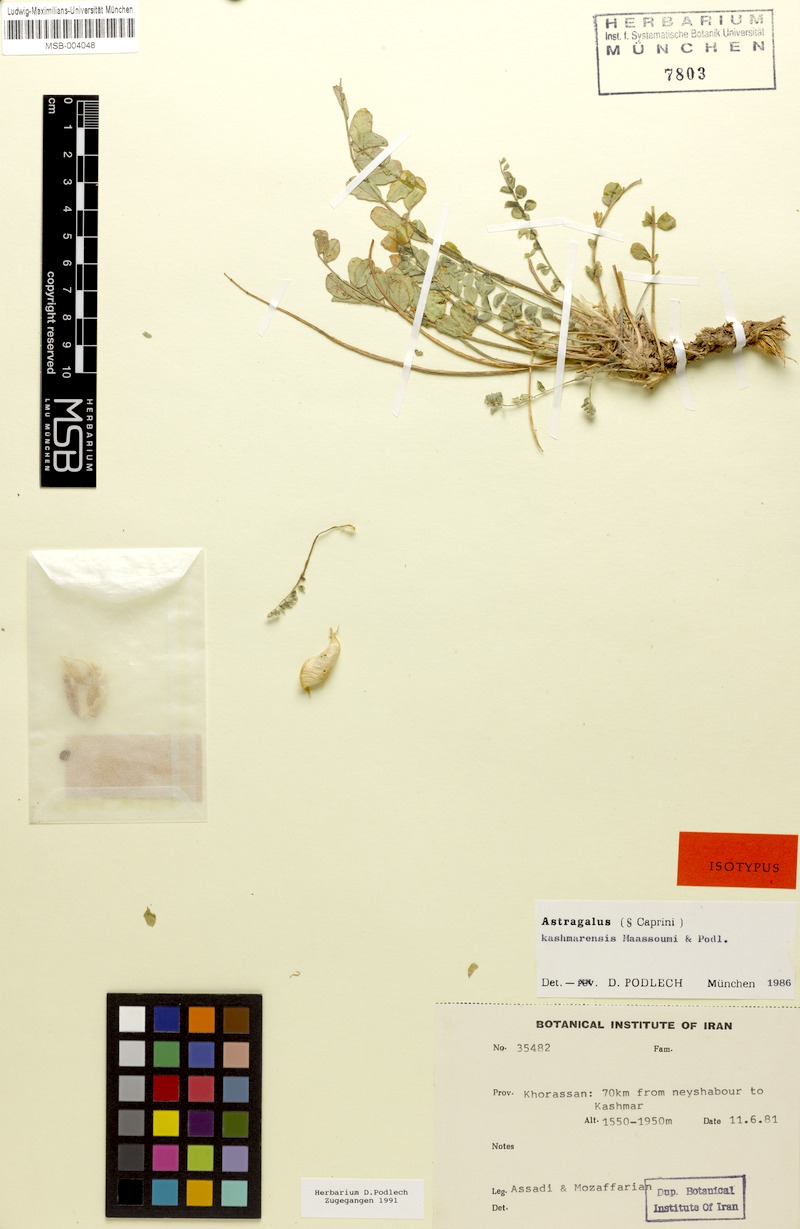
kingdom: Plantae
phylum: Tracheophyta
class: Magnoliopsida
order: Fabales
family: Fabaceae
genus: Astragalus
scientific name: Astragalus kashmarensis
